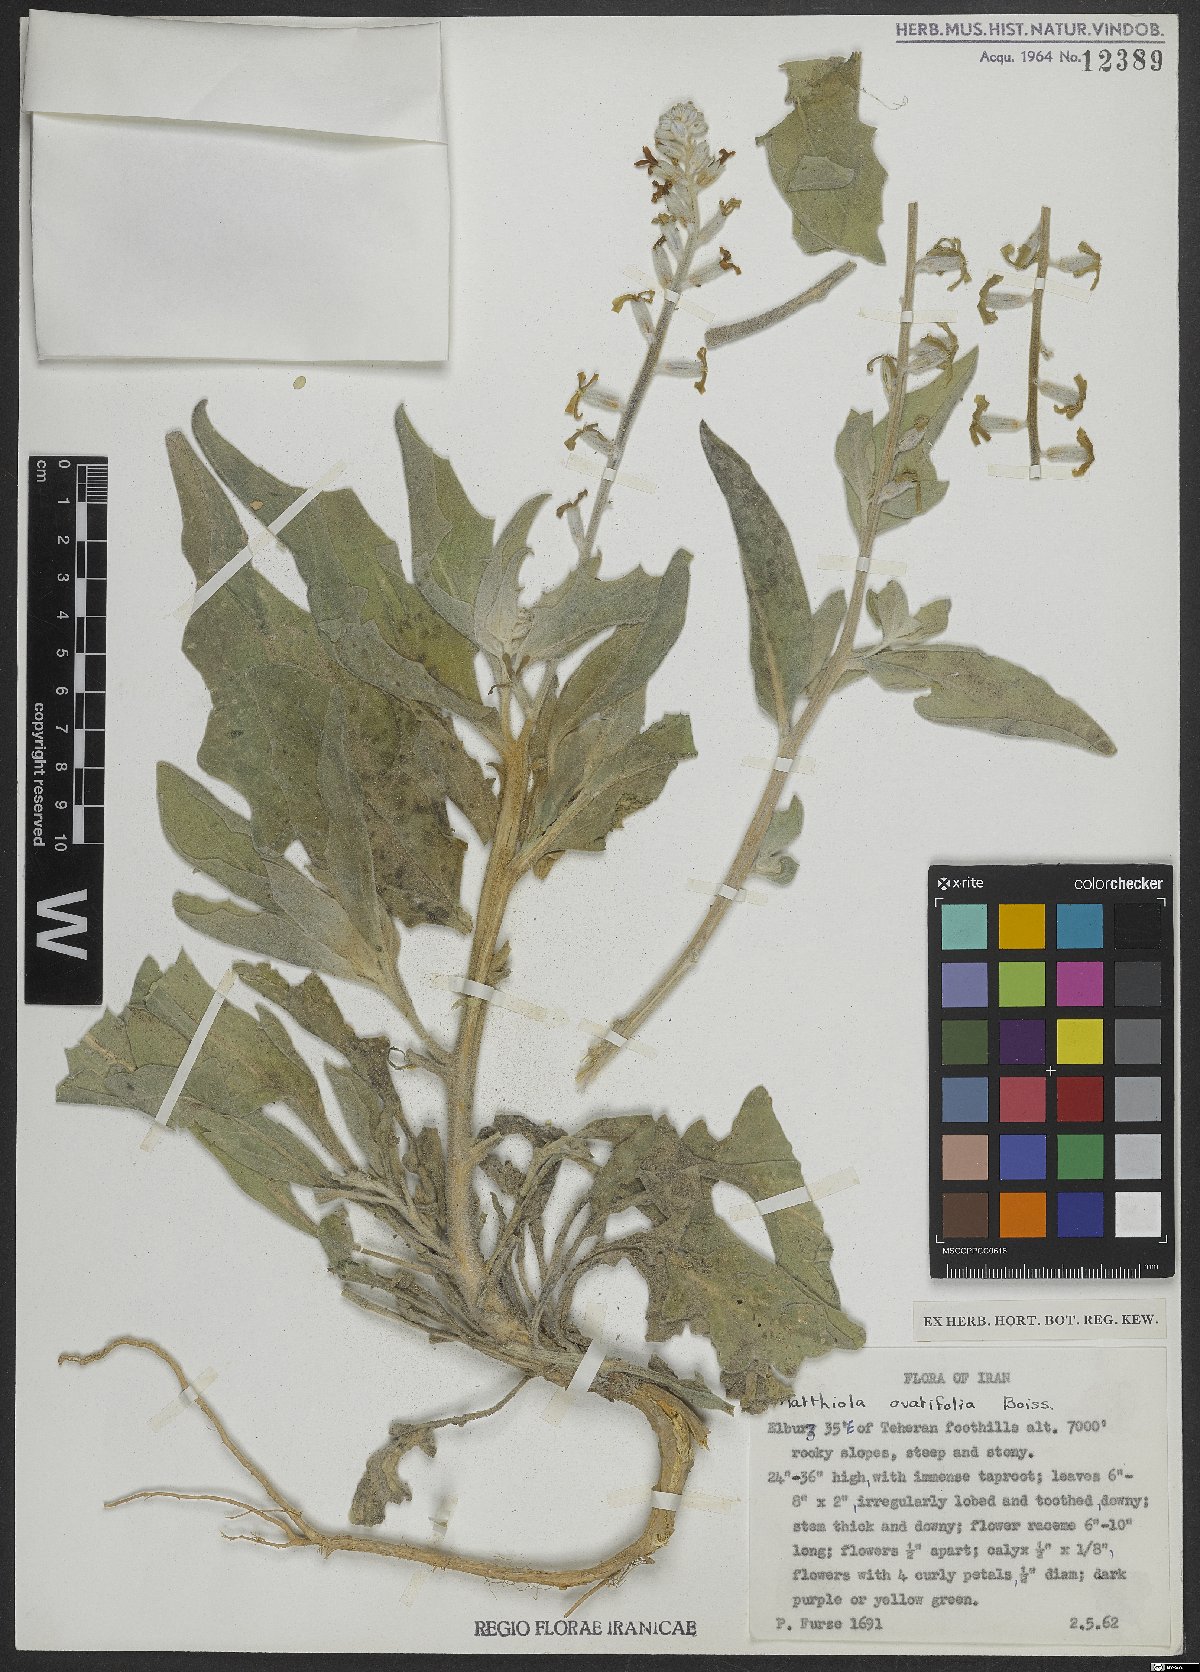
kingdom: Plantae
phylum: Tracheophyta
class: Magnoliopsida
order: Brassicales
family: Brassicaceae
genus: Matthiola
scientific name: Matthiola ovatifolia
